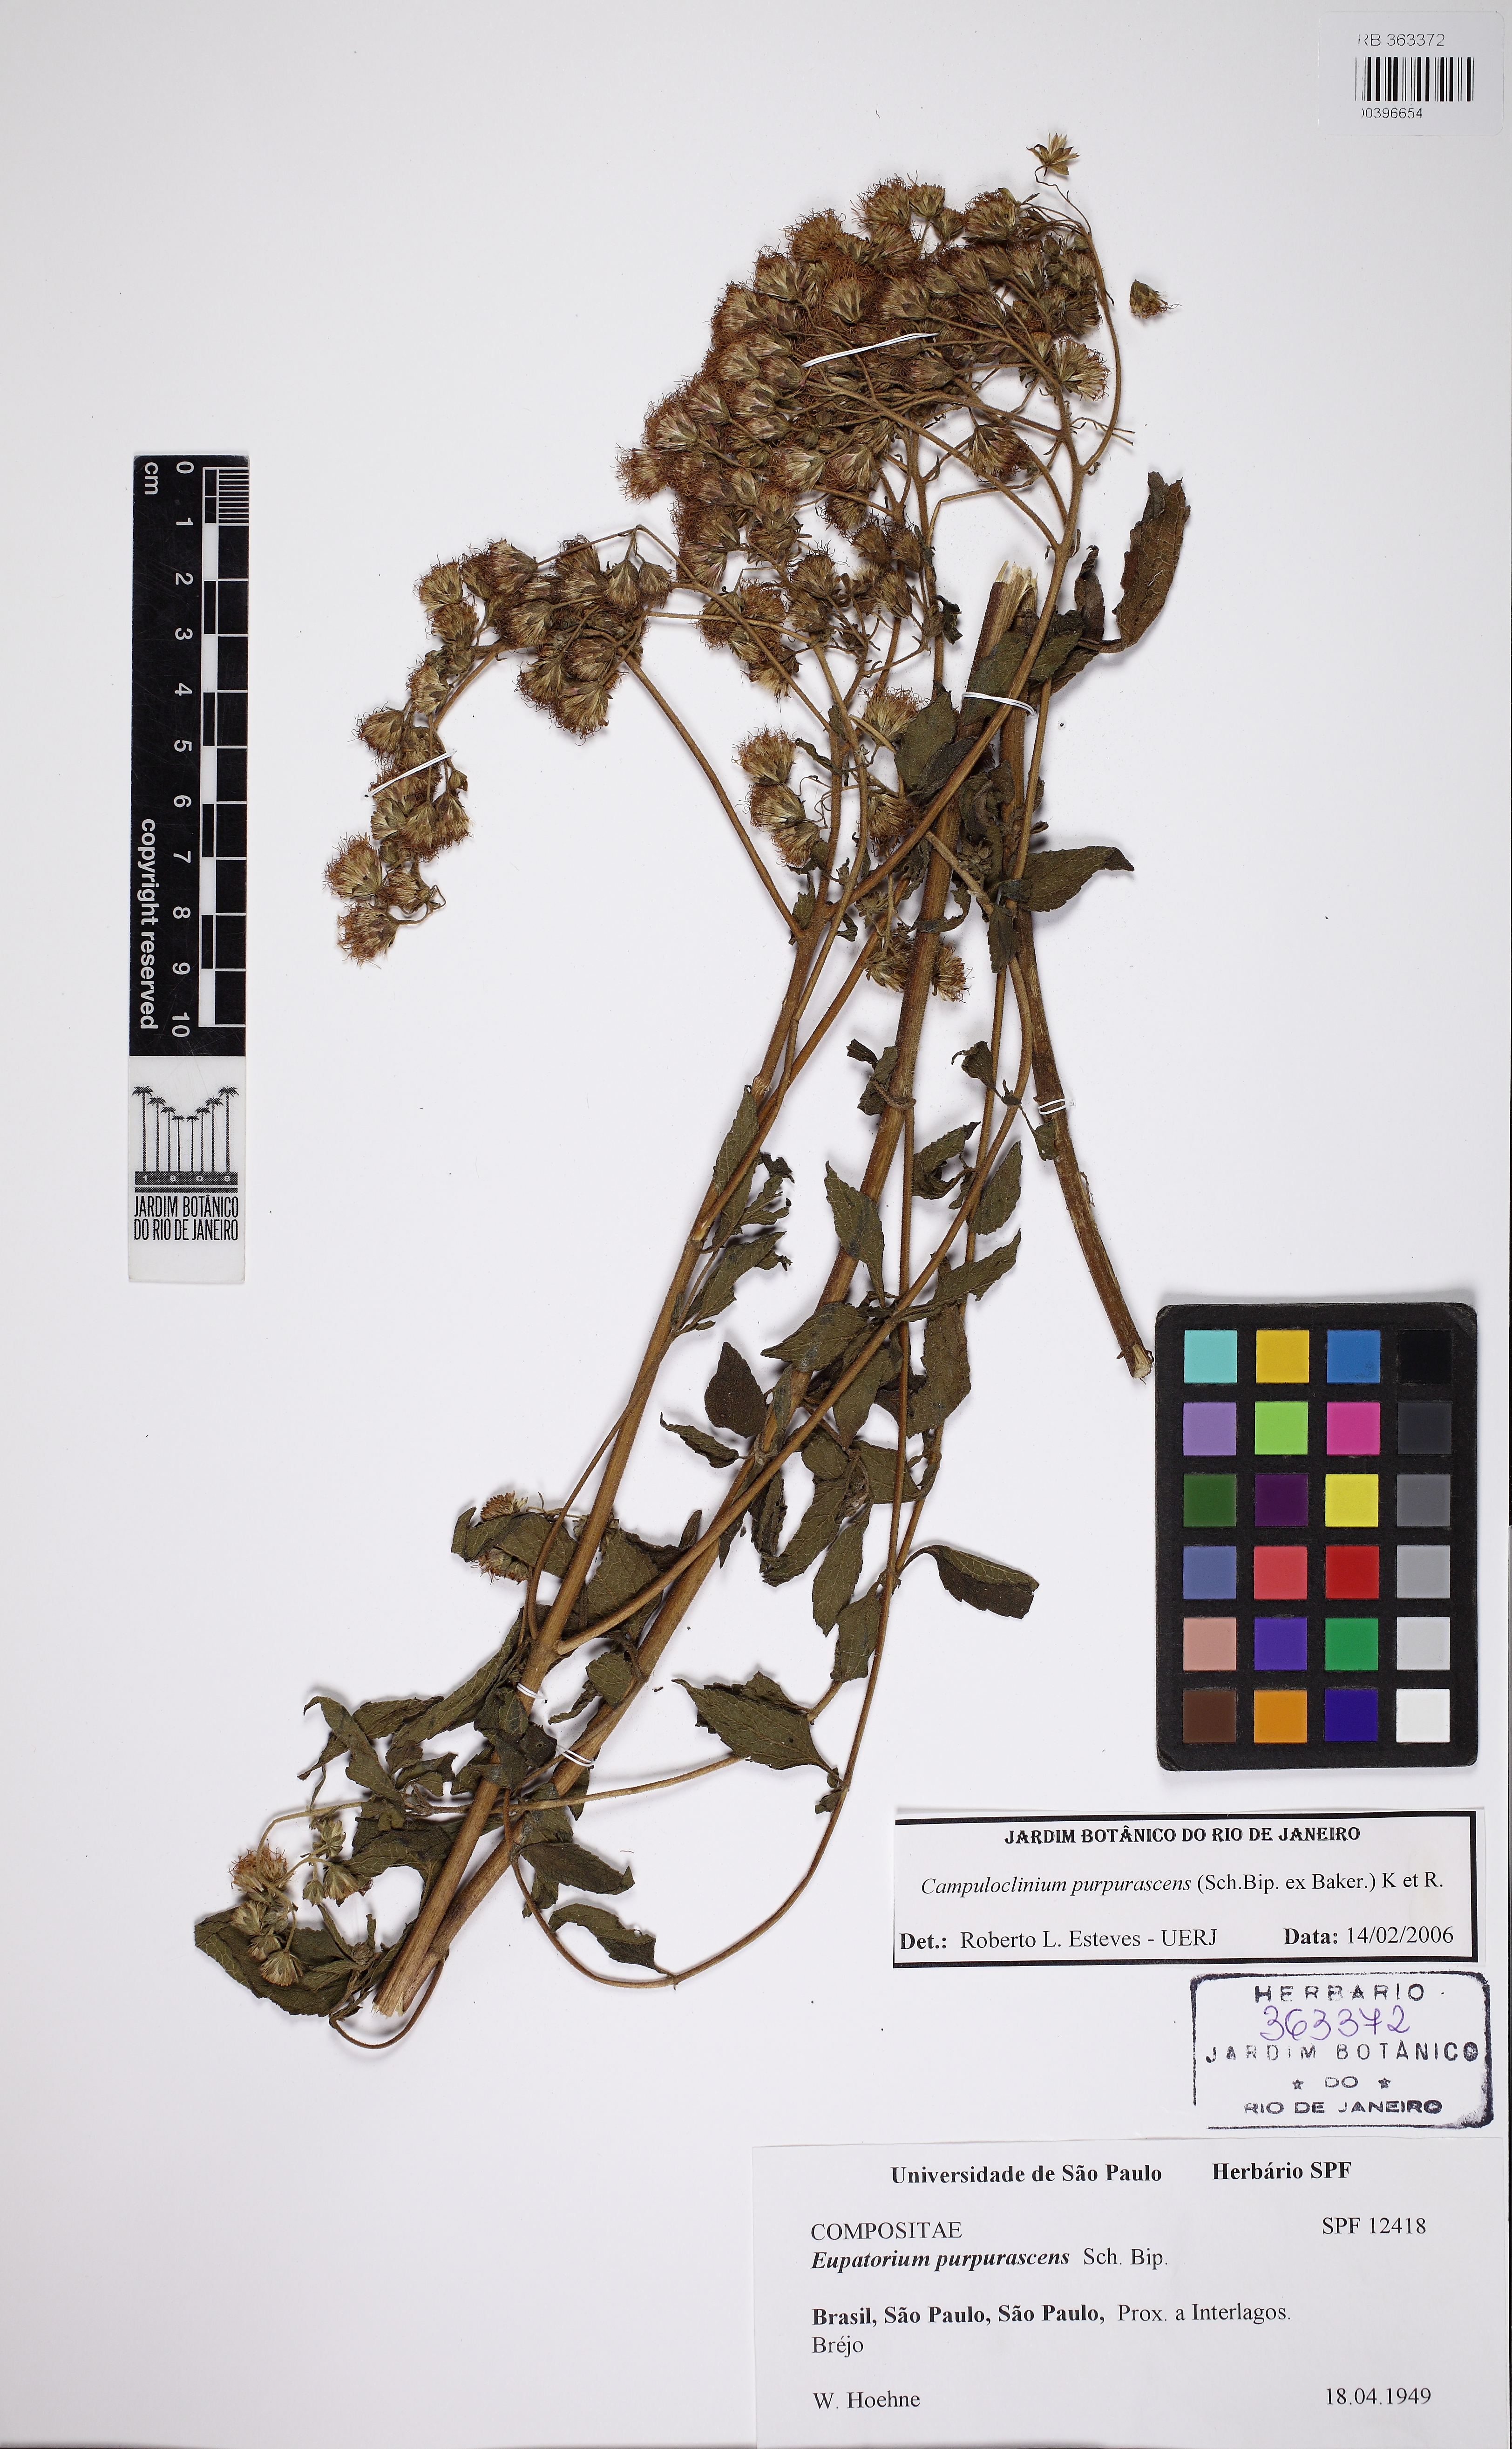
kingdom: Plantae
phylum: Tracheophyta
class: Magnoliopsida
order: Asterales
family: Asteraceae
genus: Campuloclinium
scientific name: Campuloclinium purpurascens
